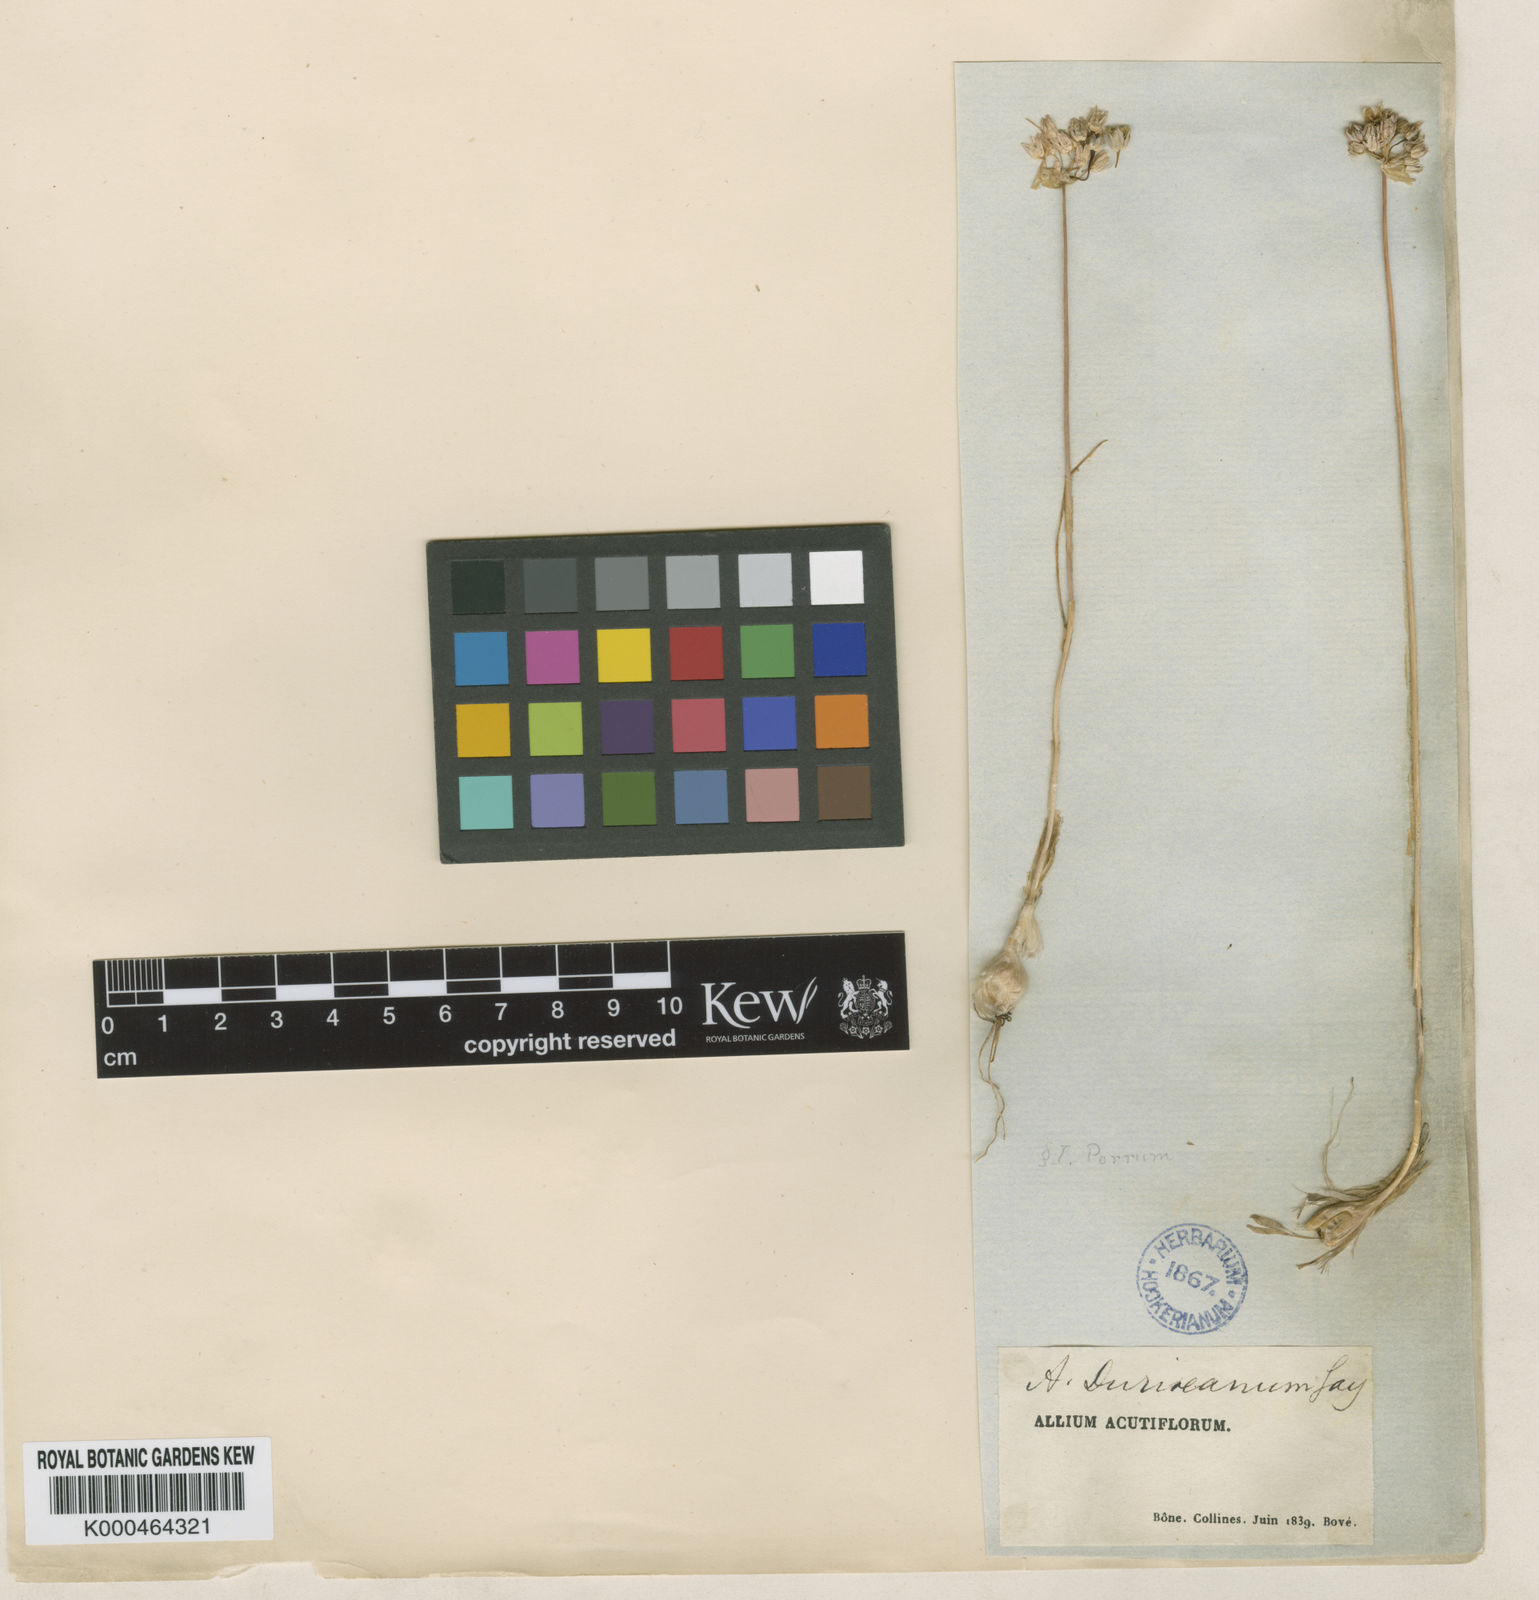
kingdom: Plantae
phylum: Tracheophyta
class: Liliopsida
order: Asparagales
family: Amaryllidaceae
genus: Allium
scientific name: Allium baeticum
